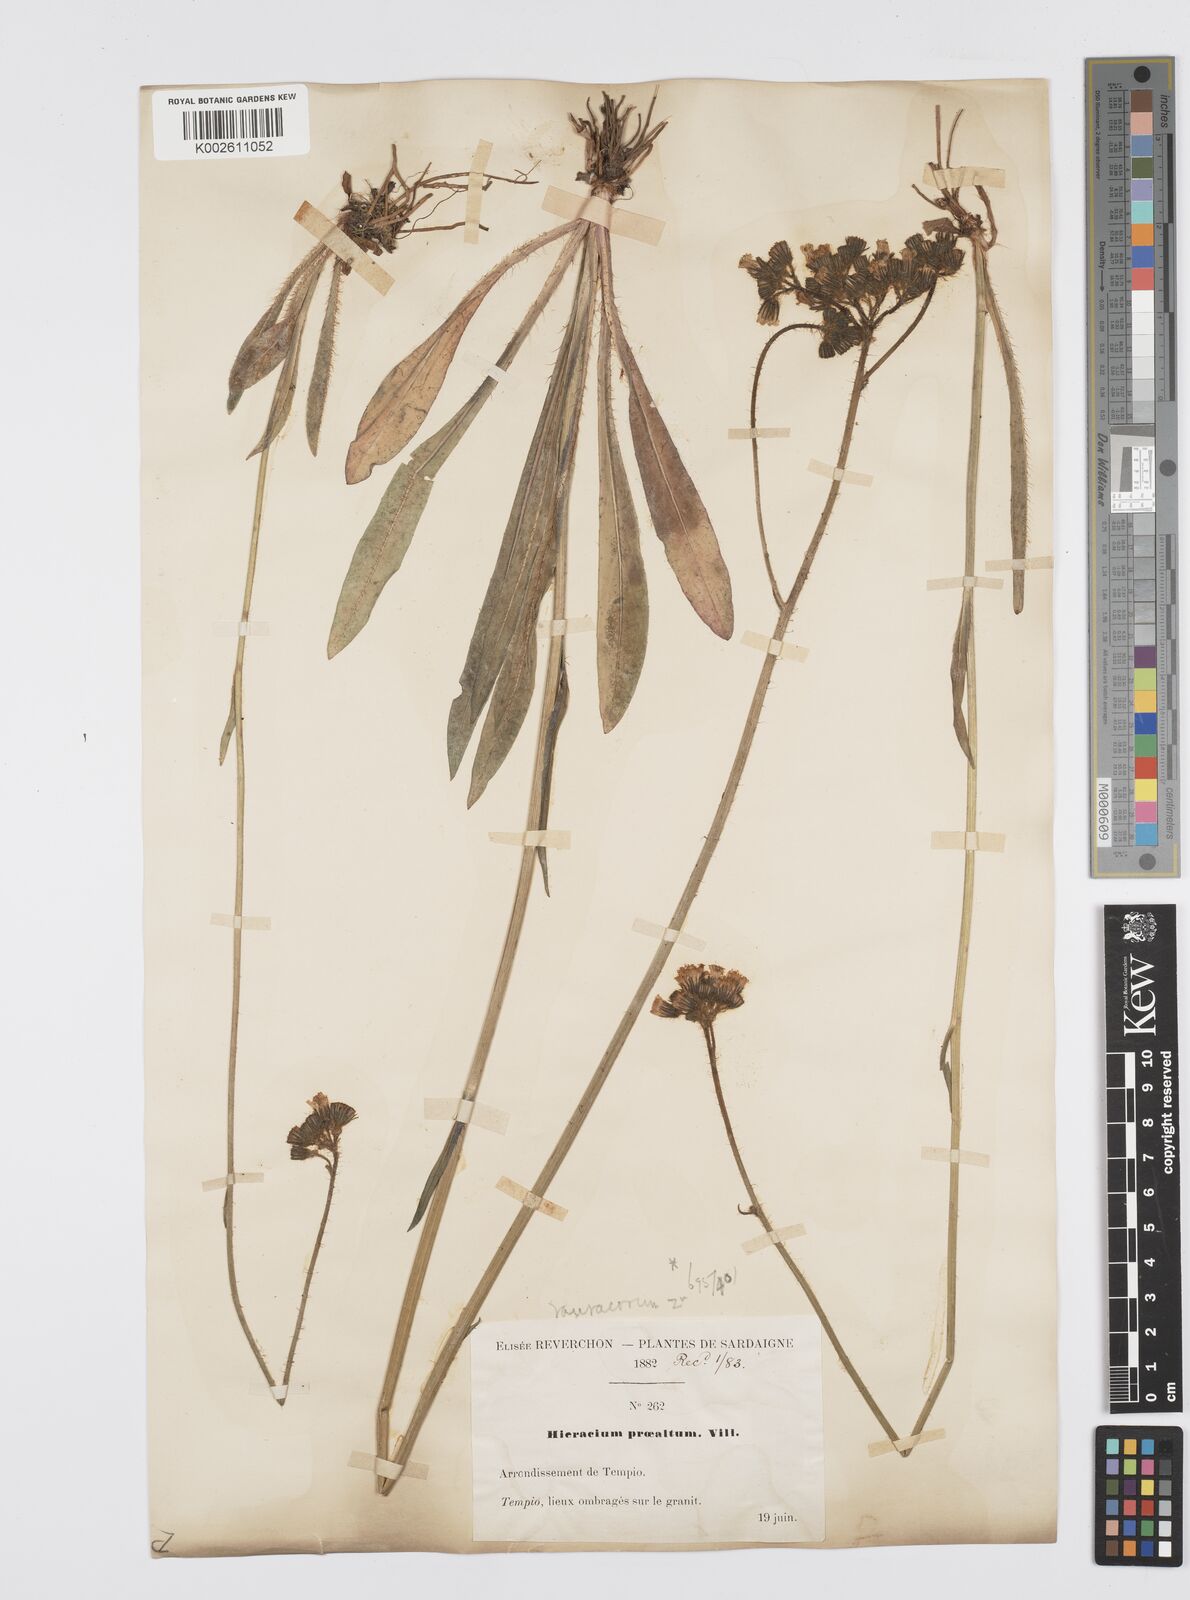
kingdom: Plantae
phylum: Tracheophyta
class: Magnoliopsida
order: Asterales
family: Asteraceae
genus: Hieracium
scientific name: Hieracium
